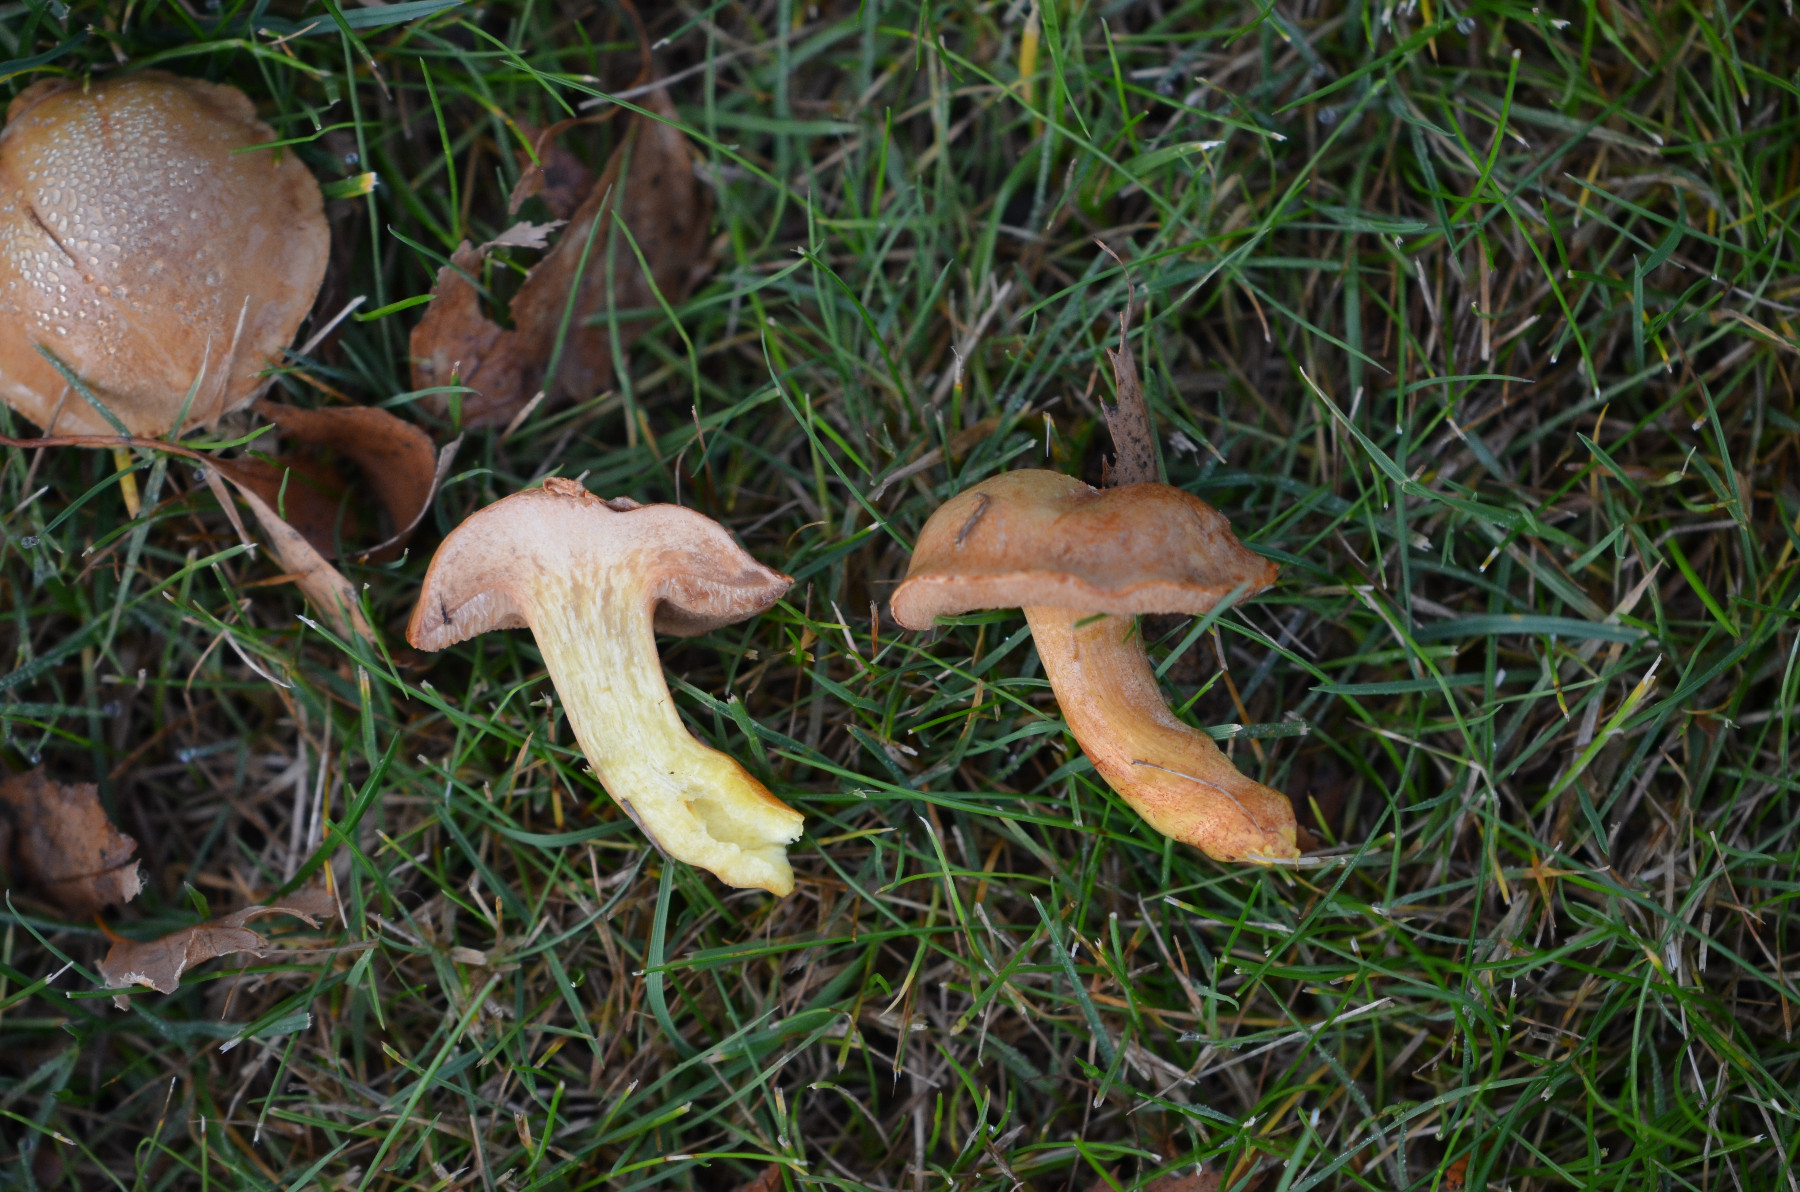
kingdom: Fungi
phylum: Basidiomycota
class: Agaricomycetes
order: Boletales
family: Boletaceae
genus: Chalciporus
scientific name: Chalciporus piperatus
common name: peberrørhat
